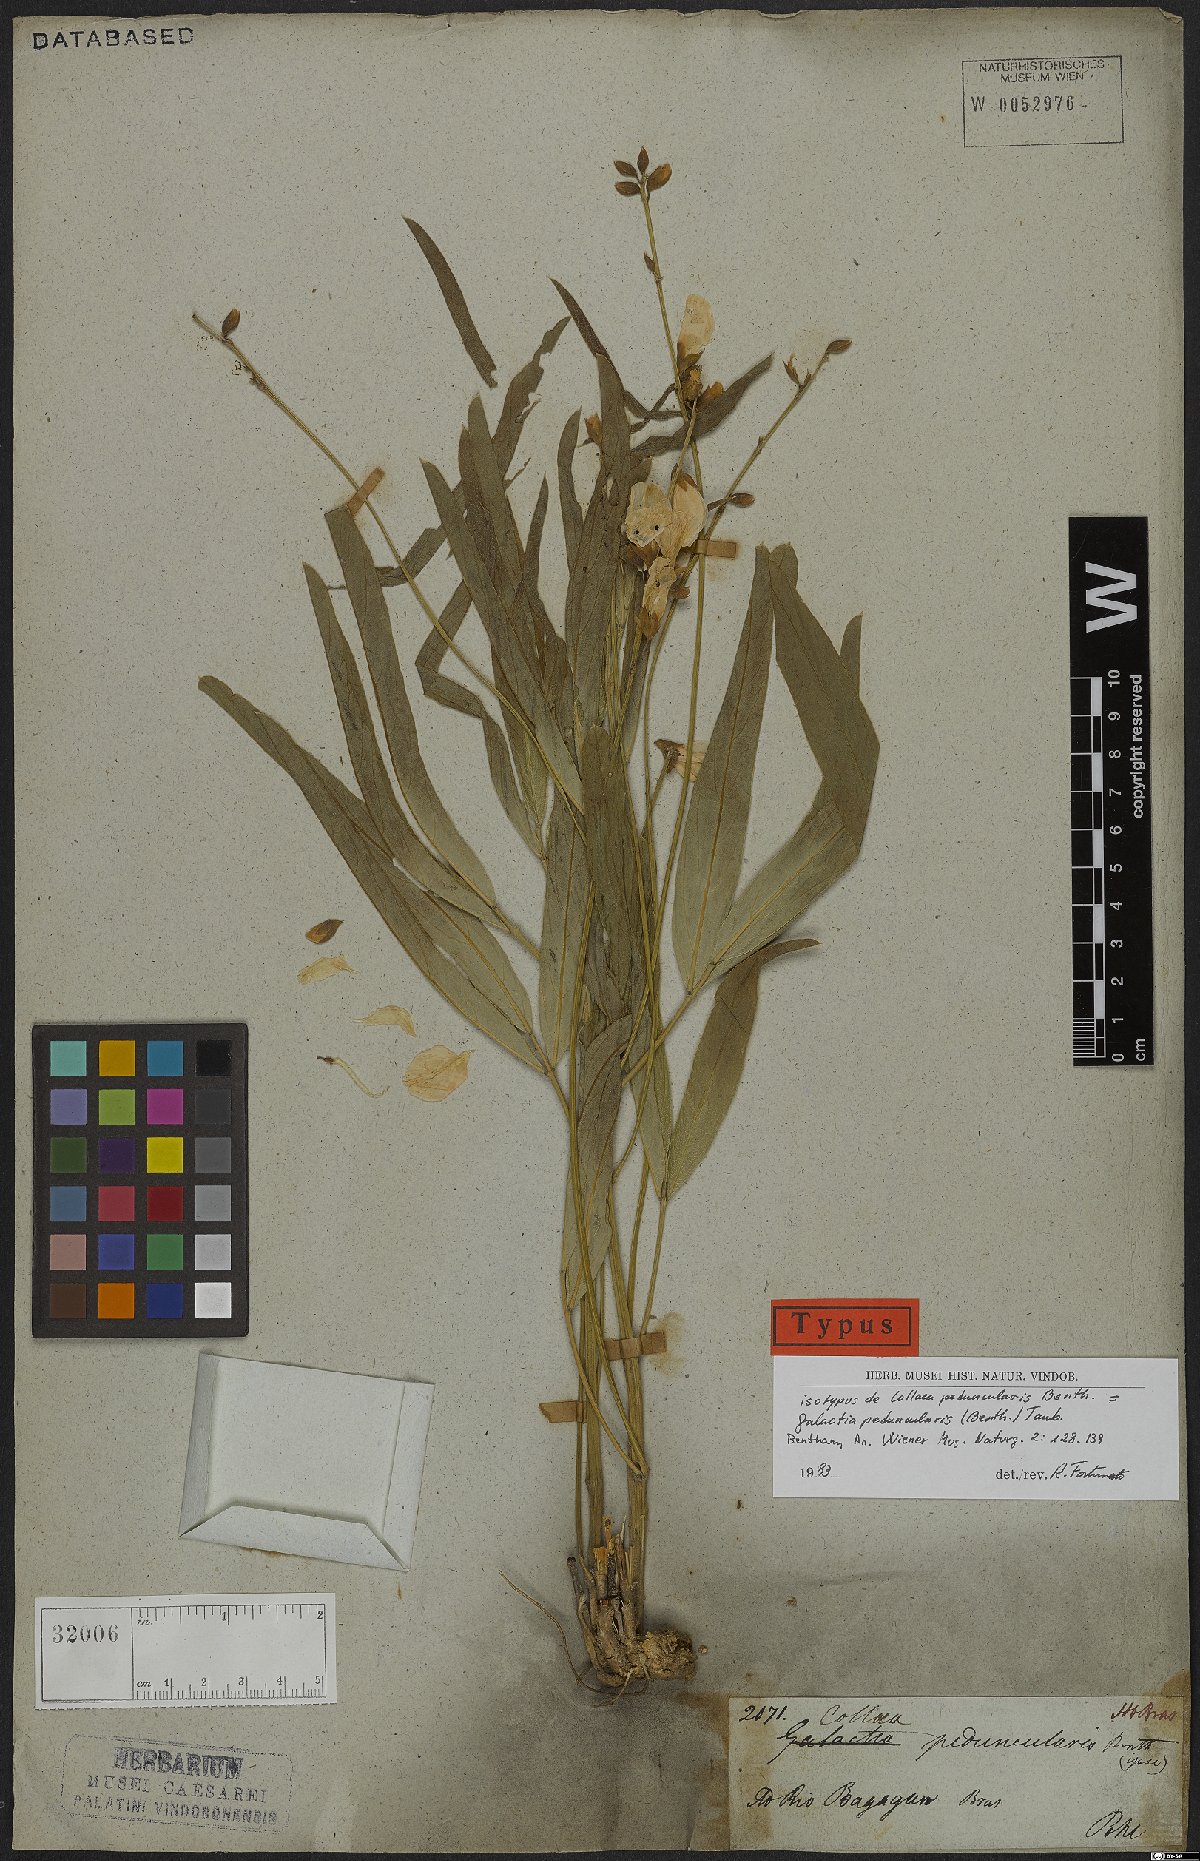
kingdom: Plantae
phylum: Tracheophyta
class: Magnoliopsida
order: Fabales
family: Fabaceae
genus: Cerradicola
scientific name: Cerradicola peduncularis
